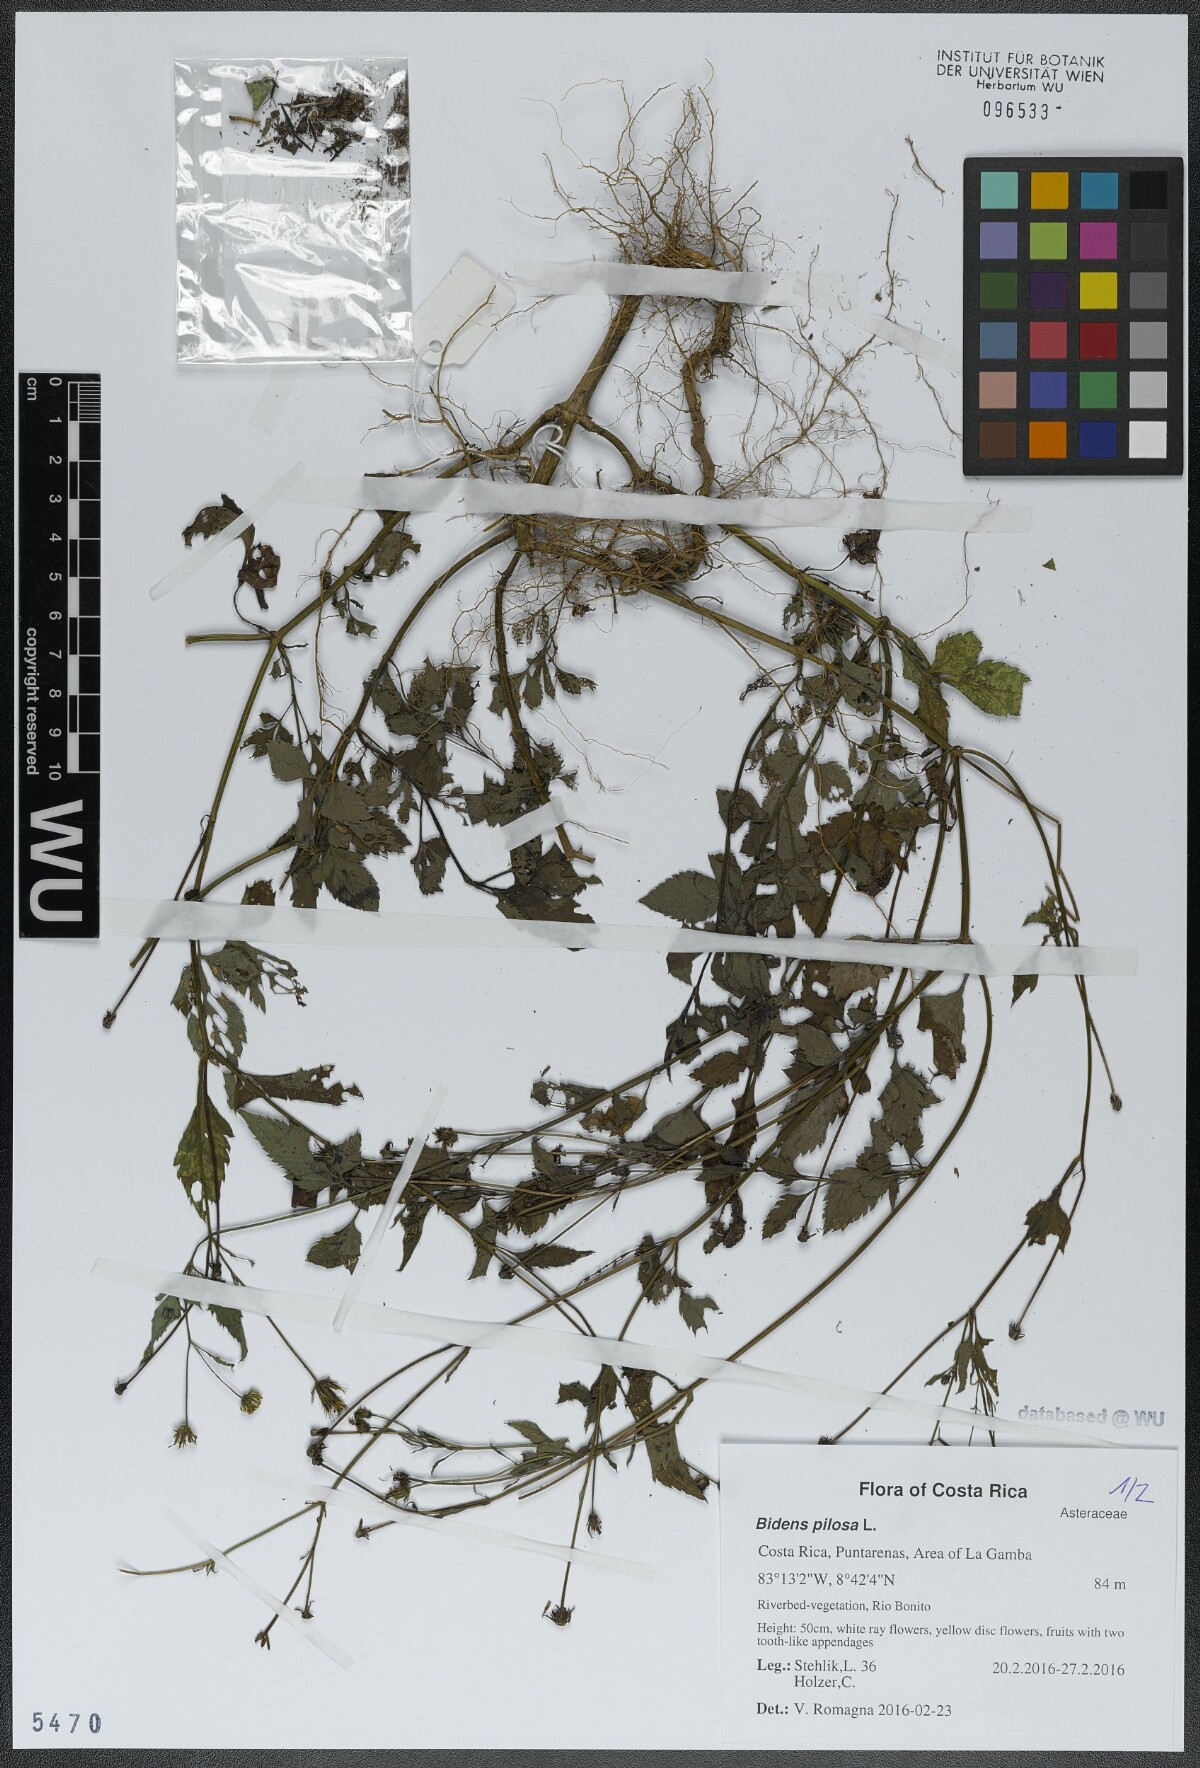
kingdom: Plantae
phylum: Tracheophyta
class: Magnoliopsida
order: Asterales
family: Asteraceae
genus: Bidens
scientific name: Bidens pilosa
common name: Black-jack
